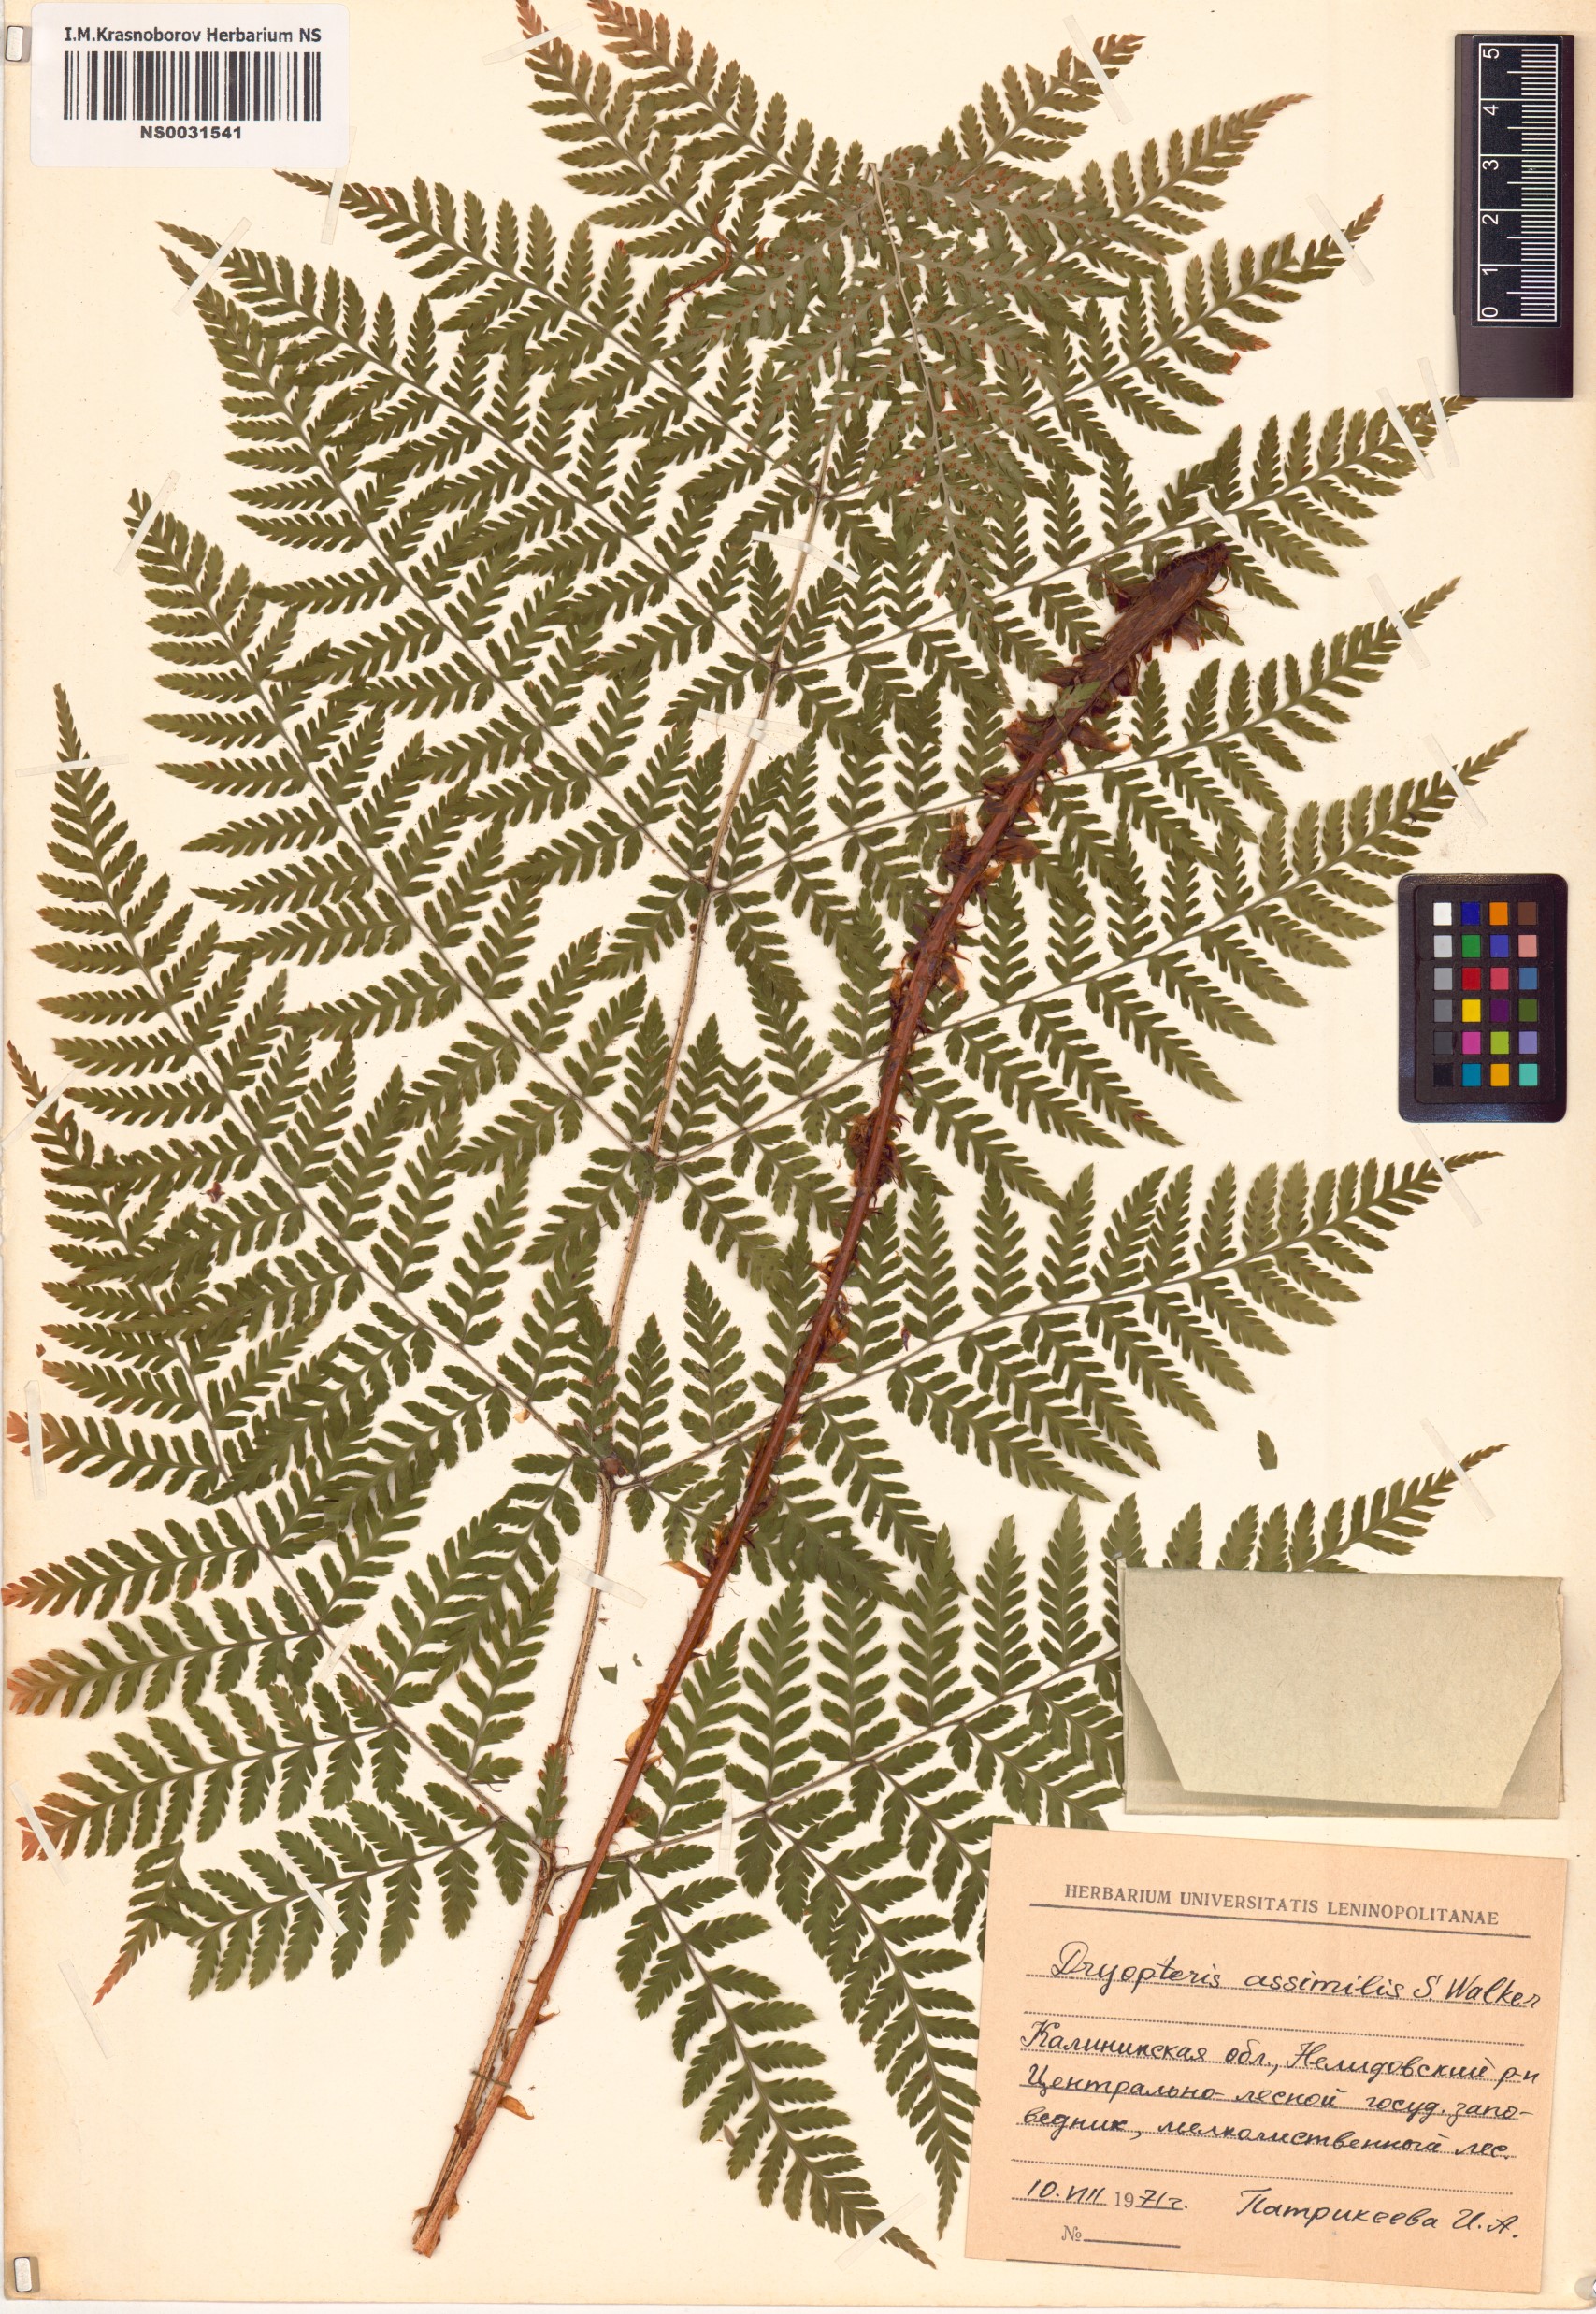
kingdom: Plantae
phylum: Tracheophyta
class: Polypodiopsida
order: Polypodiales
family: Dryopteridaceae
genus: Dryopteris
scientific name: Dryopteris expansa
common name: Northern buckler fern
